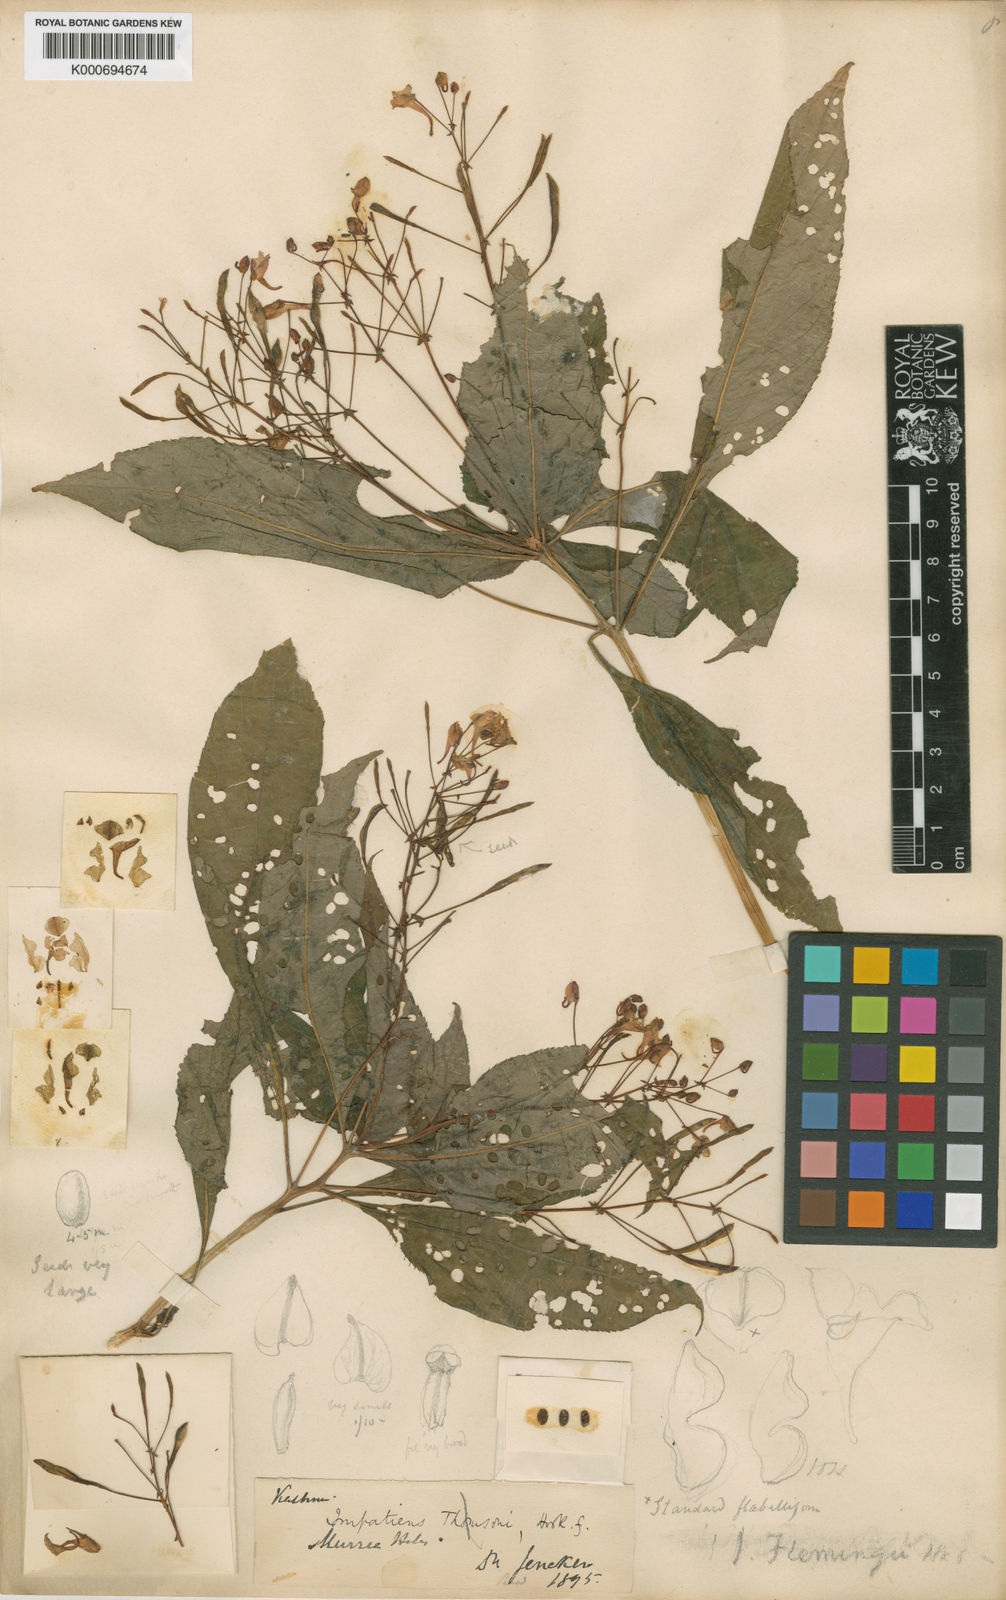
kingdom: Plantae
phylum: Tracheophyta
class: Magnoliopsida
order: Ericales
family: Balsaminaceae
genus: Impatiens
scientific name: Impatiens flemingii
